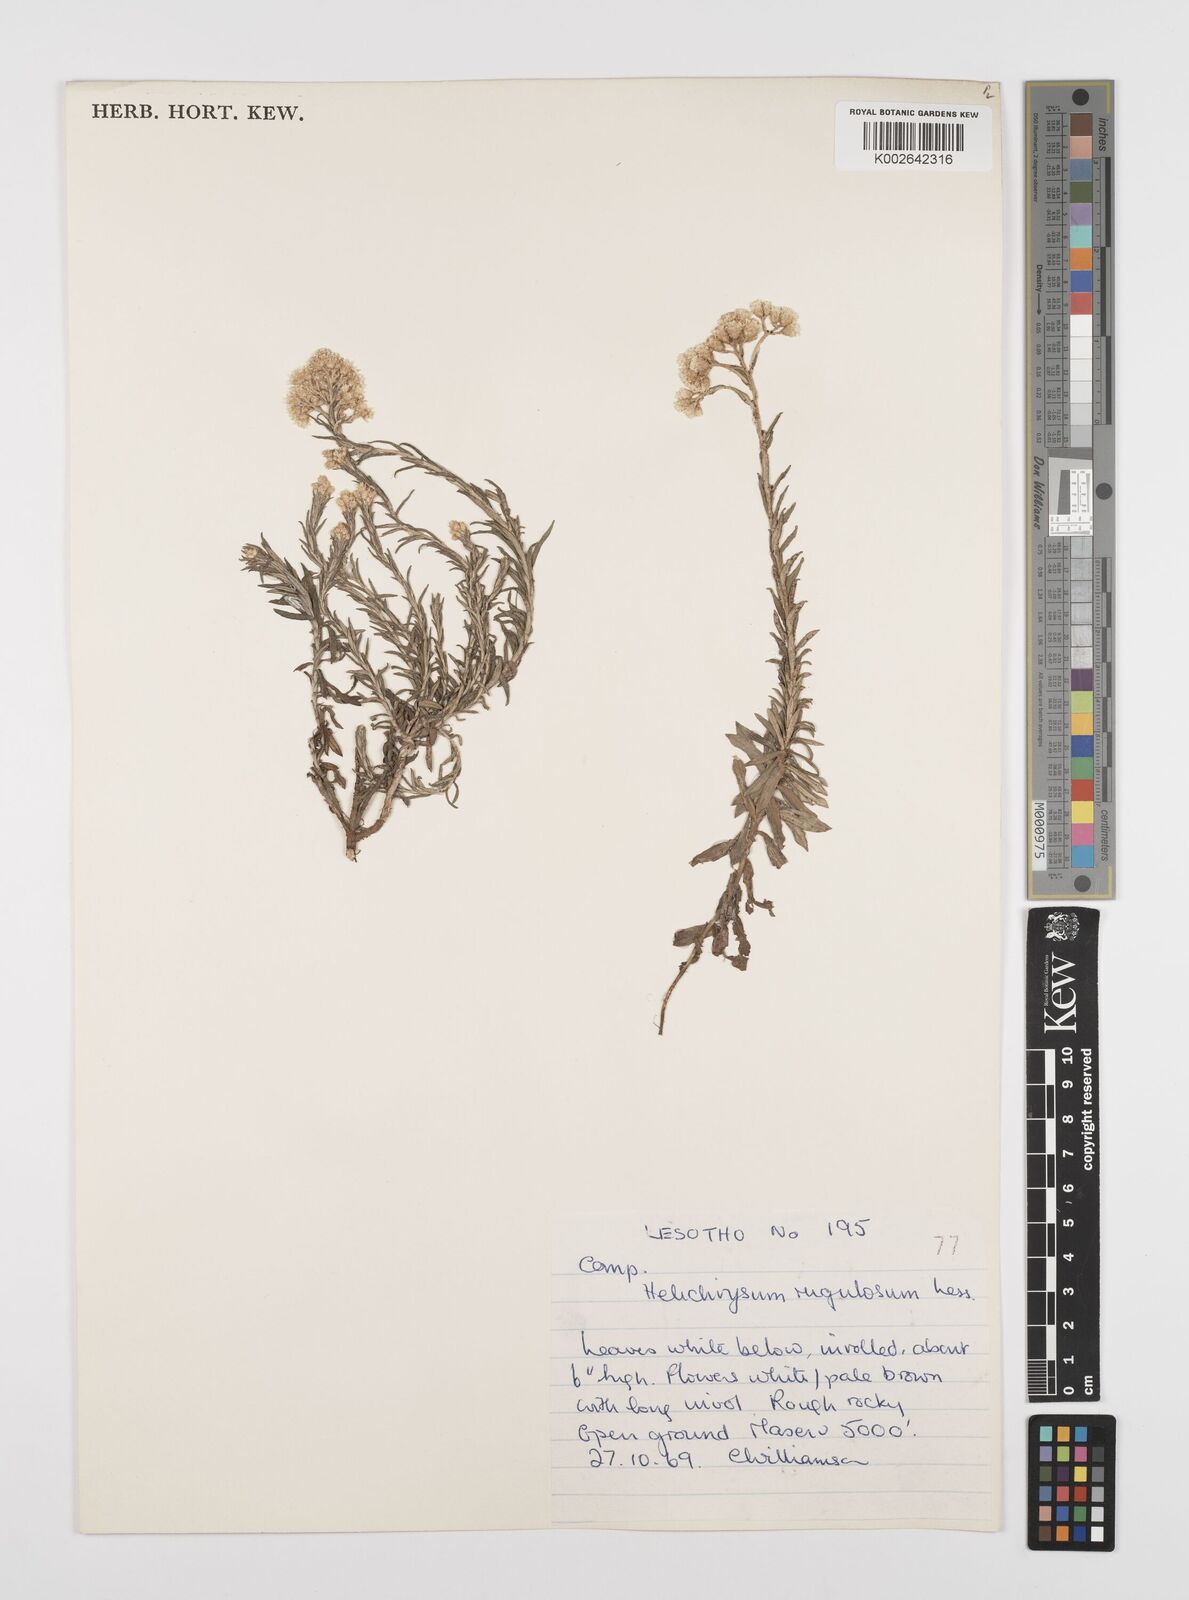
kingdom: Plantae
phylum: Tracheophyta
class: Magnoliopsida
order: Asterales
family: Asteraceae
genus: Helichrysum
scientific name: Helichrysum rugulosum
